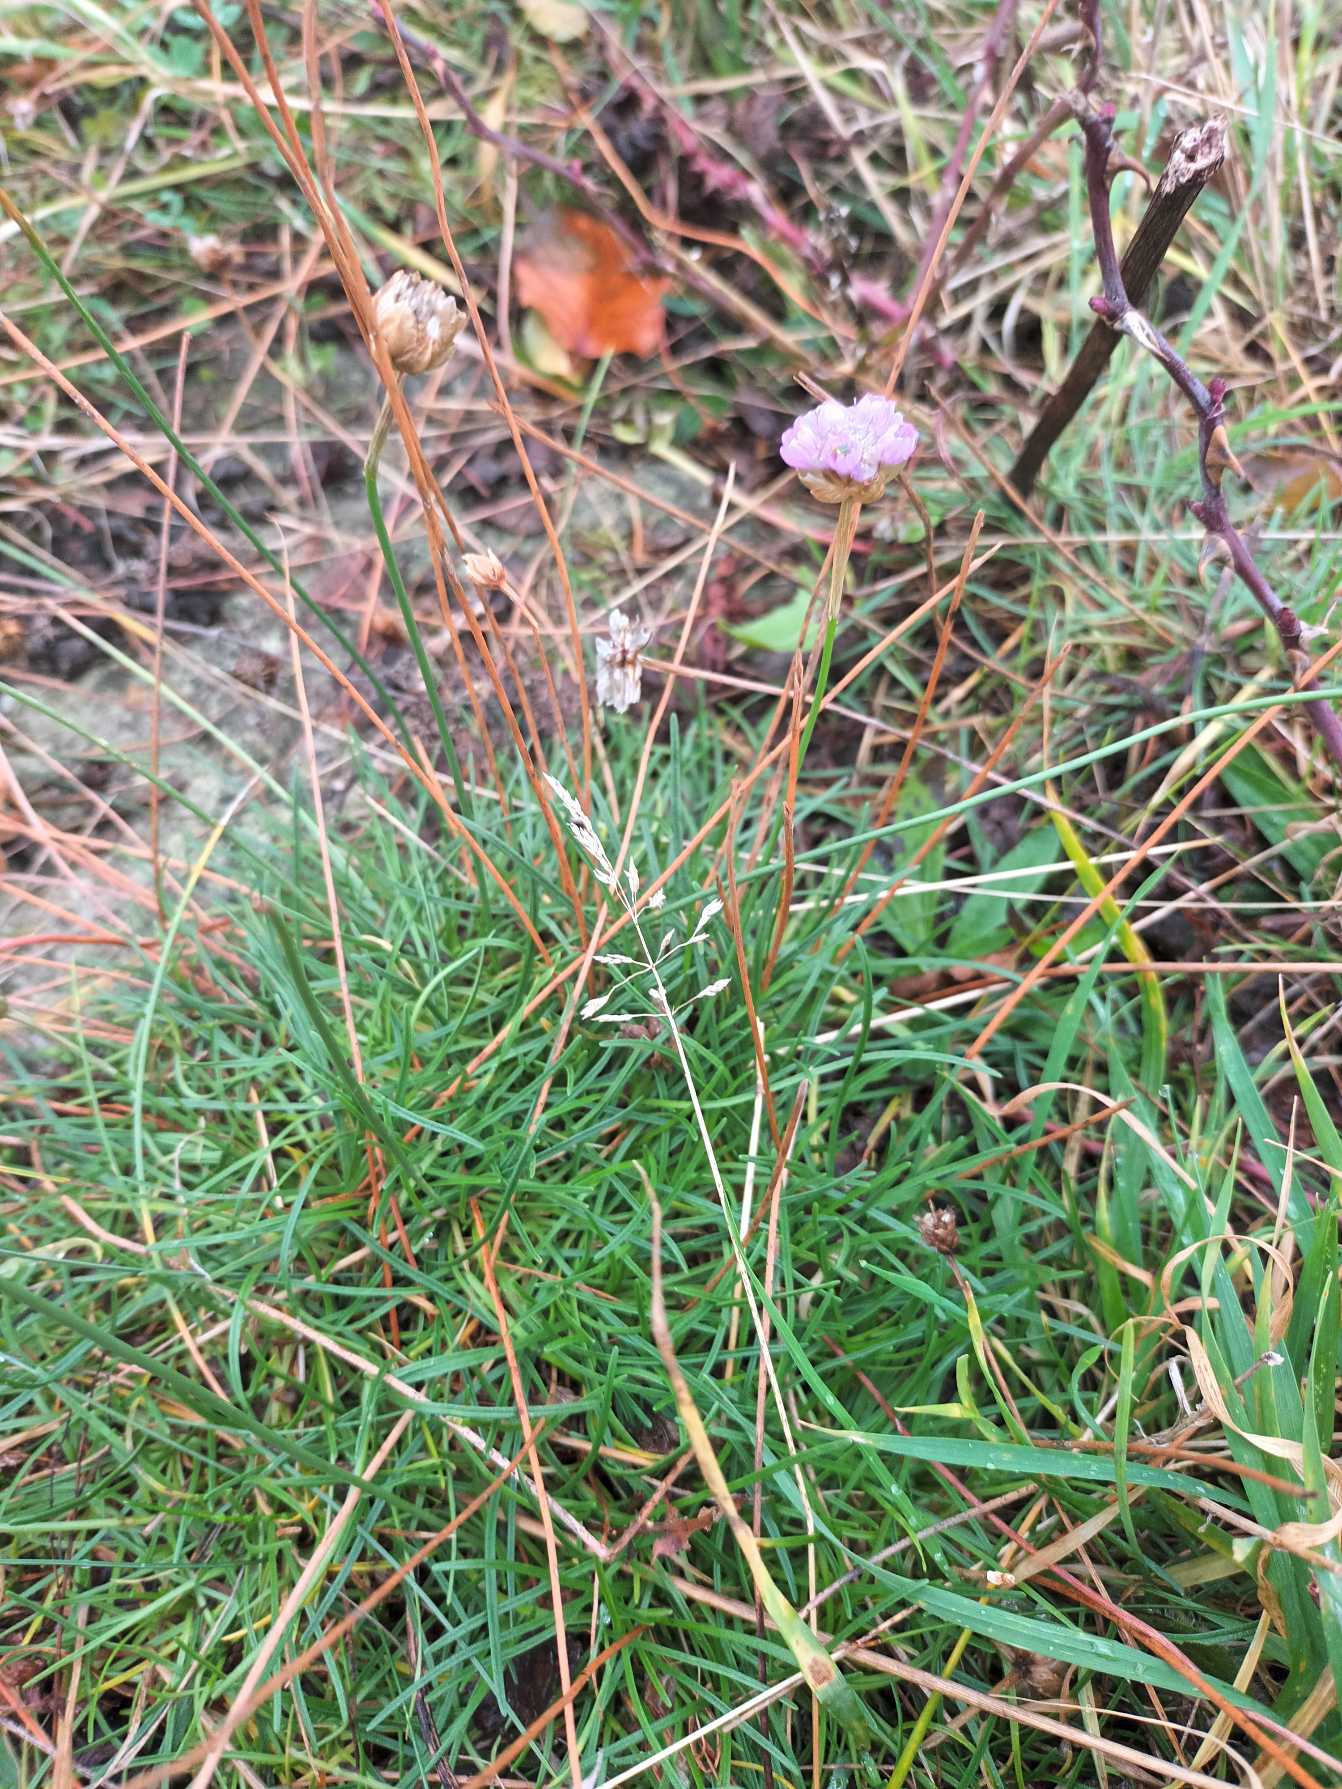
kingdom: Plantae
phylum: Tracheophyta
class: Magnoliopsida
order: Caryophyllales
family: Plumbaginaceae
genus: Armeria
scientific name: Armeria maritima
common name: Engelskgræs
